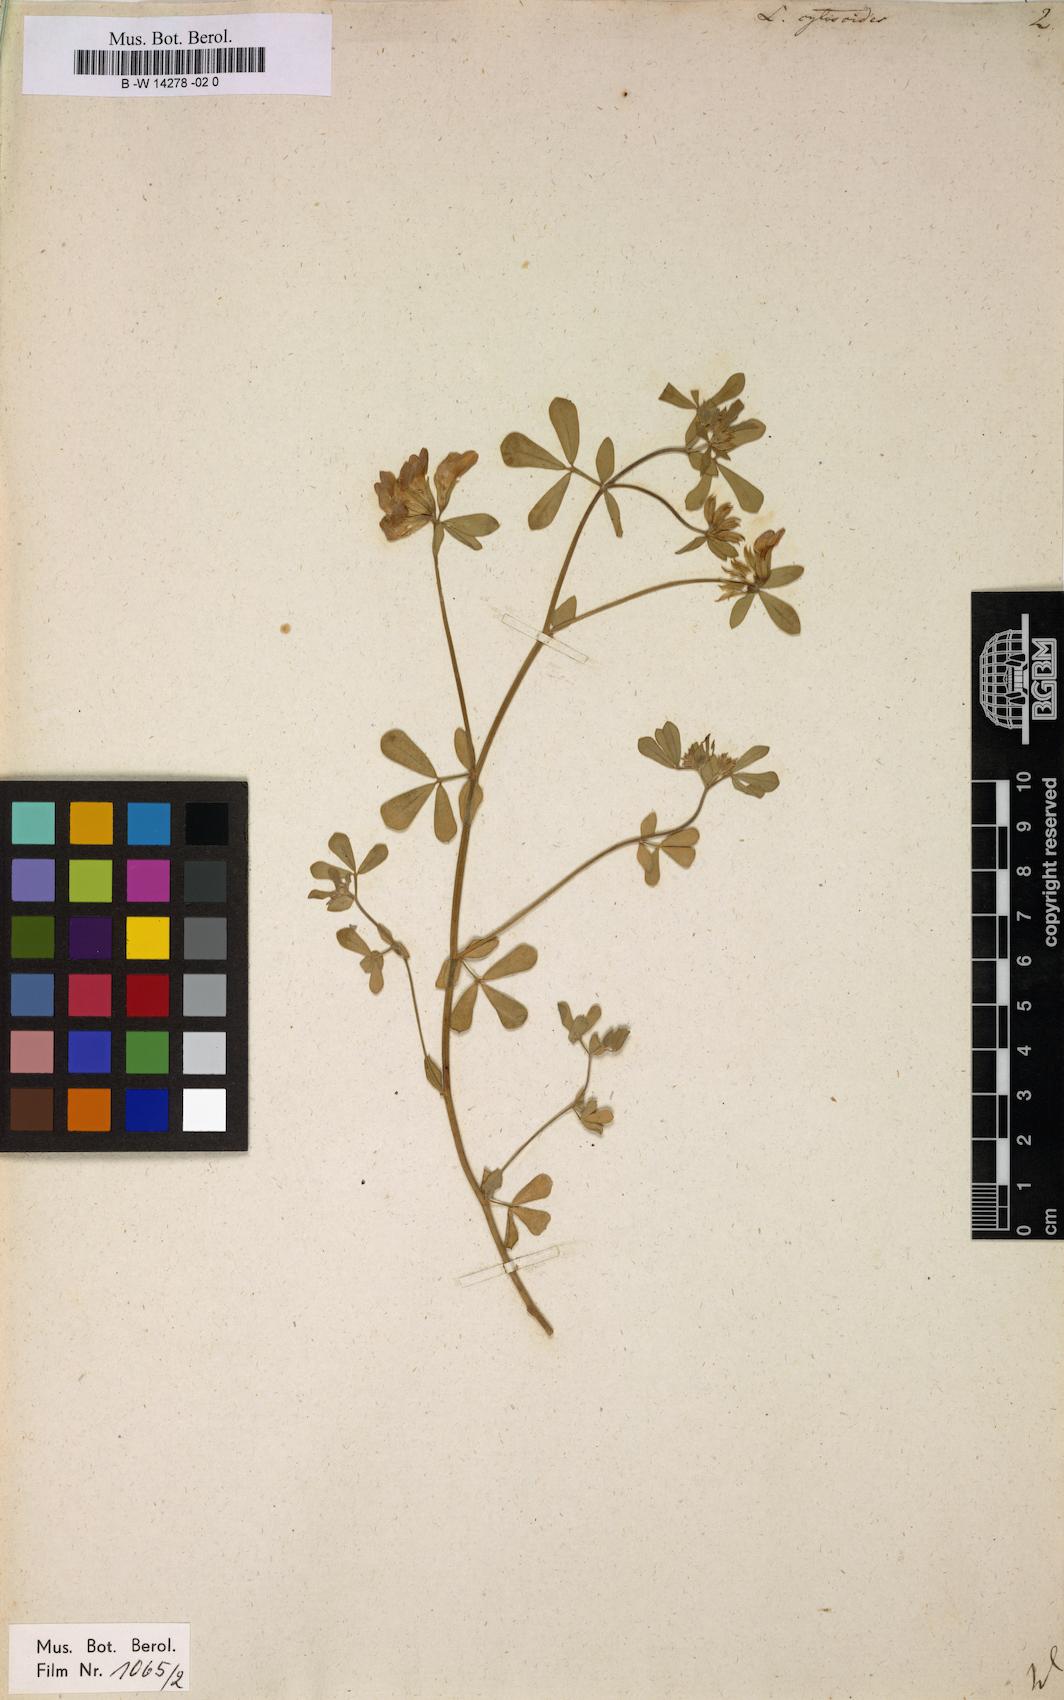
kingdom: Plantae
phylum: Tracheophyta
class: Magnoliopsida
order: Fabales
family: Fabaceae
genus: Lotus
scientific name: Lotus cytisoides
